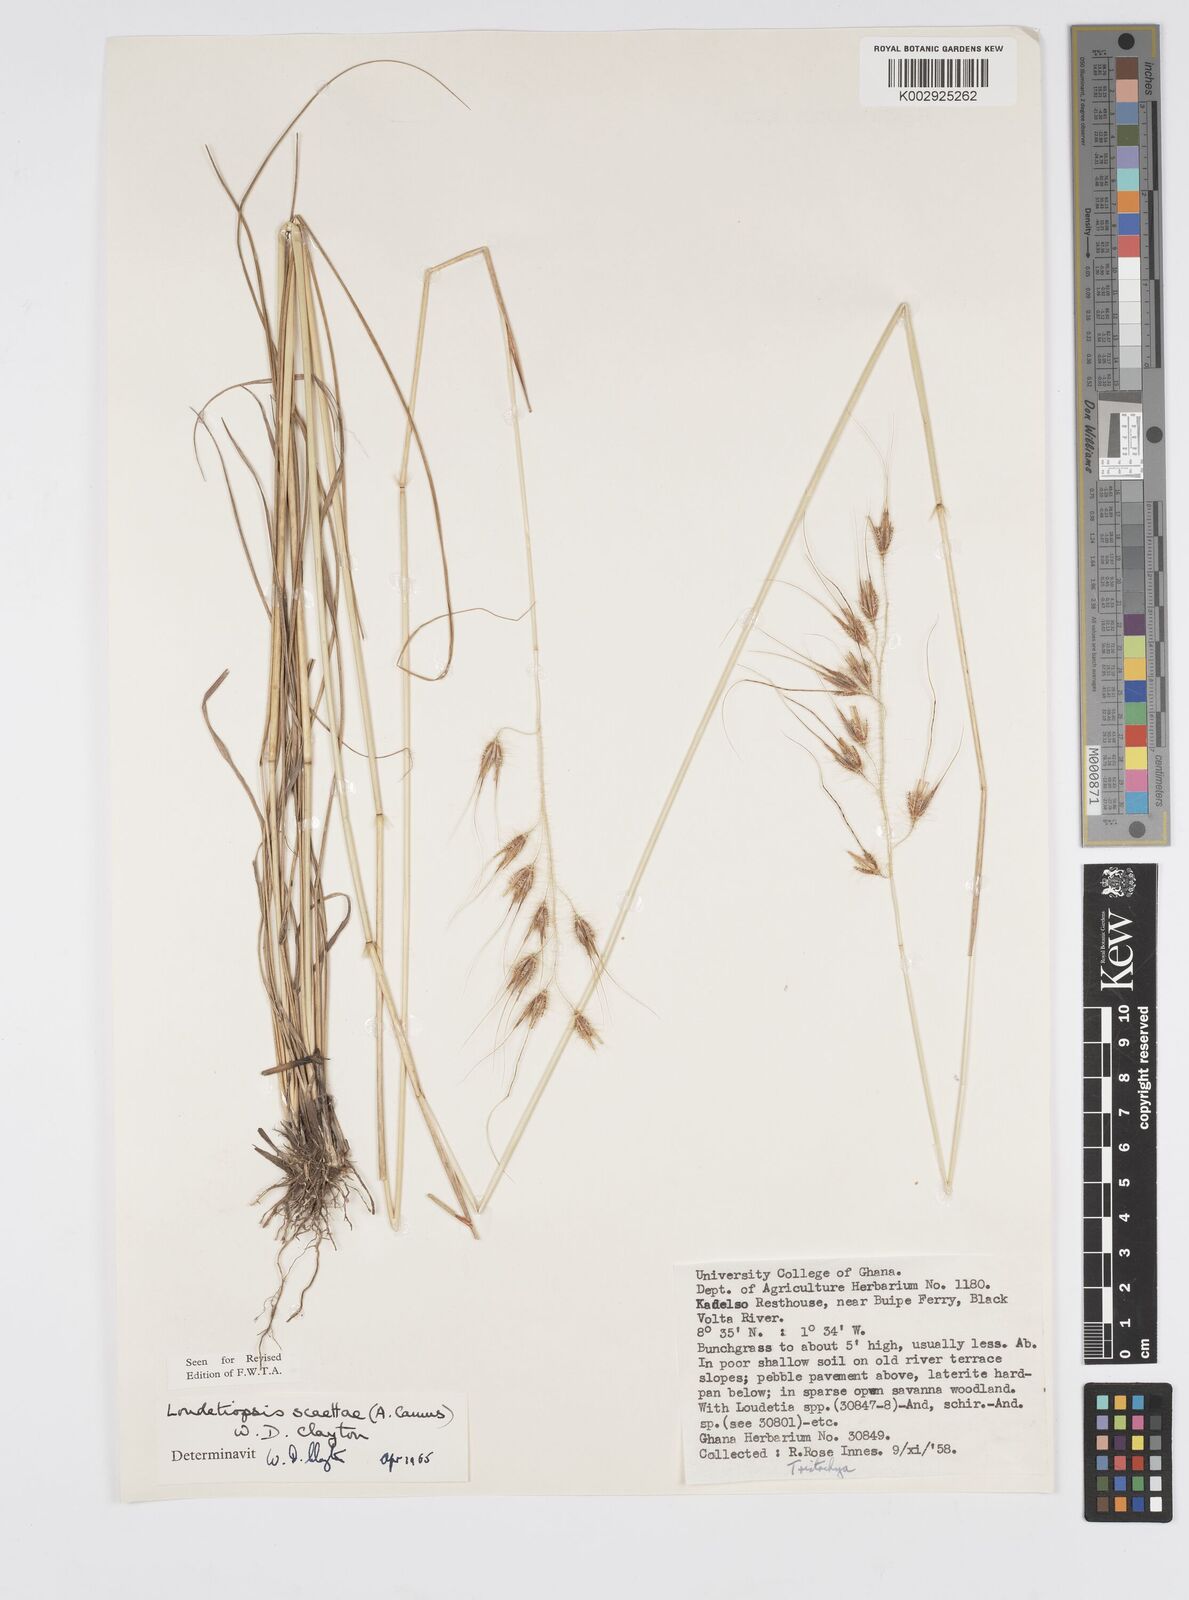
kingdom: Plantae
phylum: Tracheophyta
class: Liliopsida
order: Poales
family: Poaceae
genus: Loudetiopsis
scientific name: Loudetiopsis scaettae
